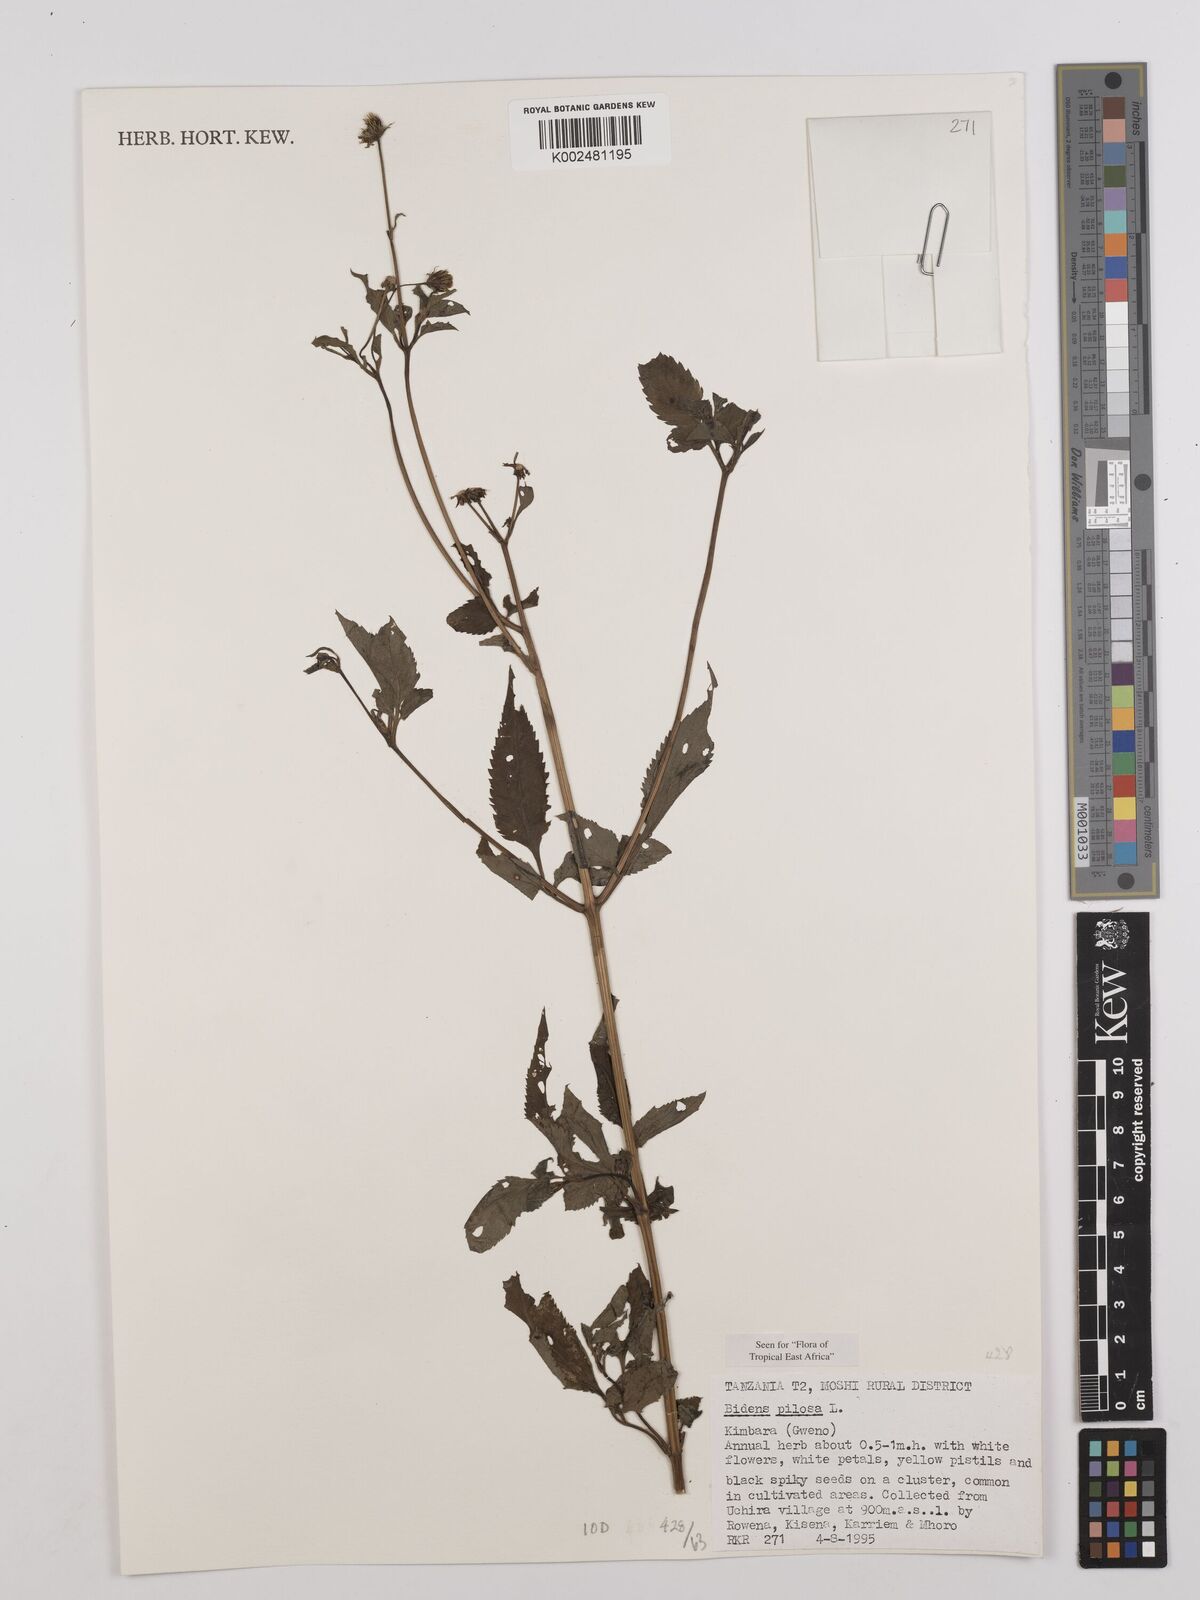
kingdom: Plantae
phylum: Tracheophyta
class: Magnoliopsida
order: Asterales
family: Asteraceae
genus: Bidens
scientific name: Bidens pilosa
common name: Black-jack
